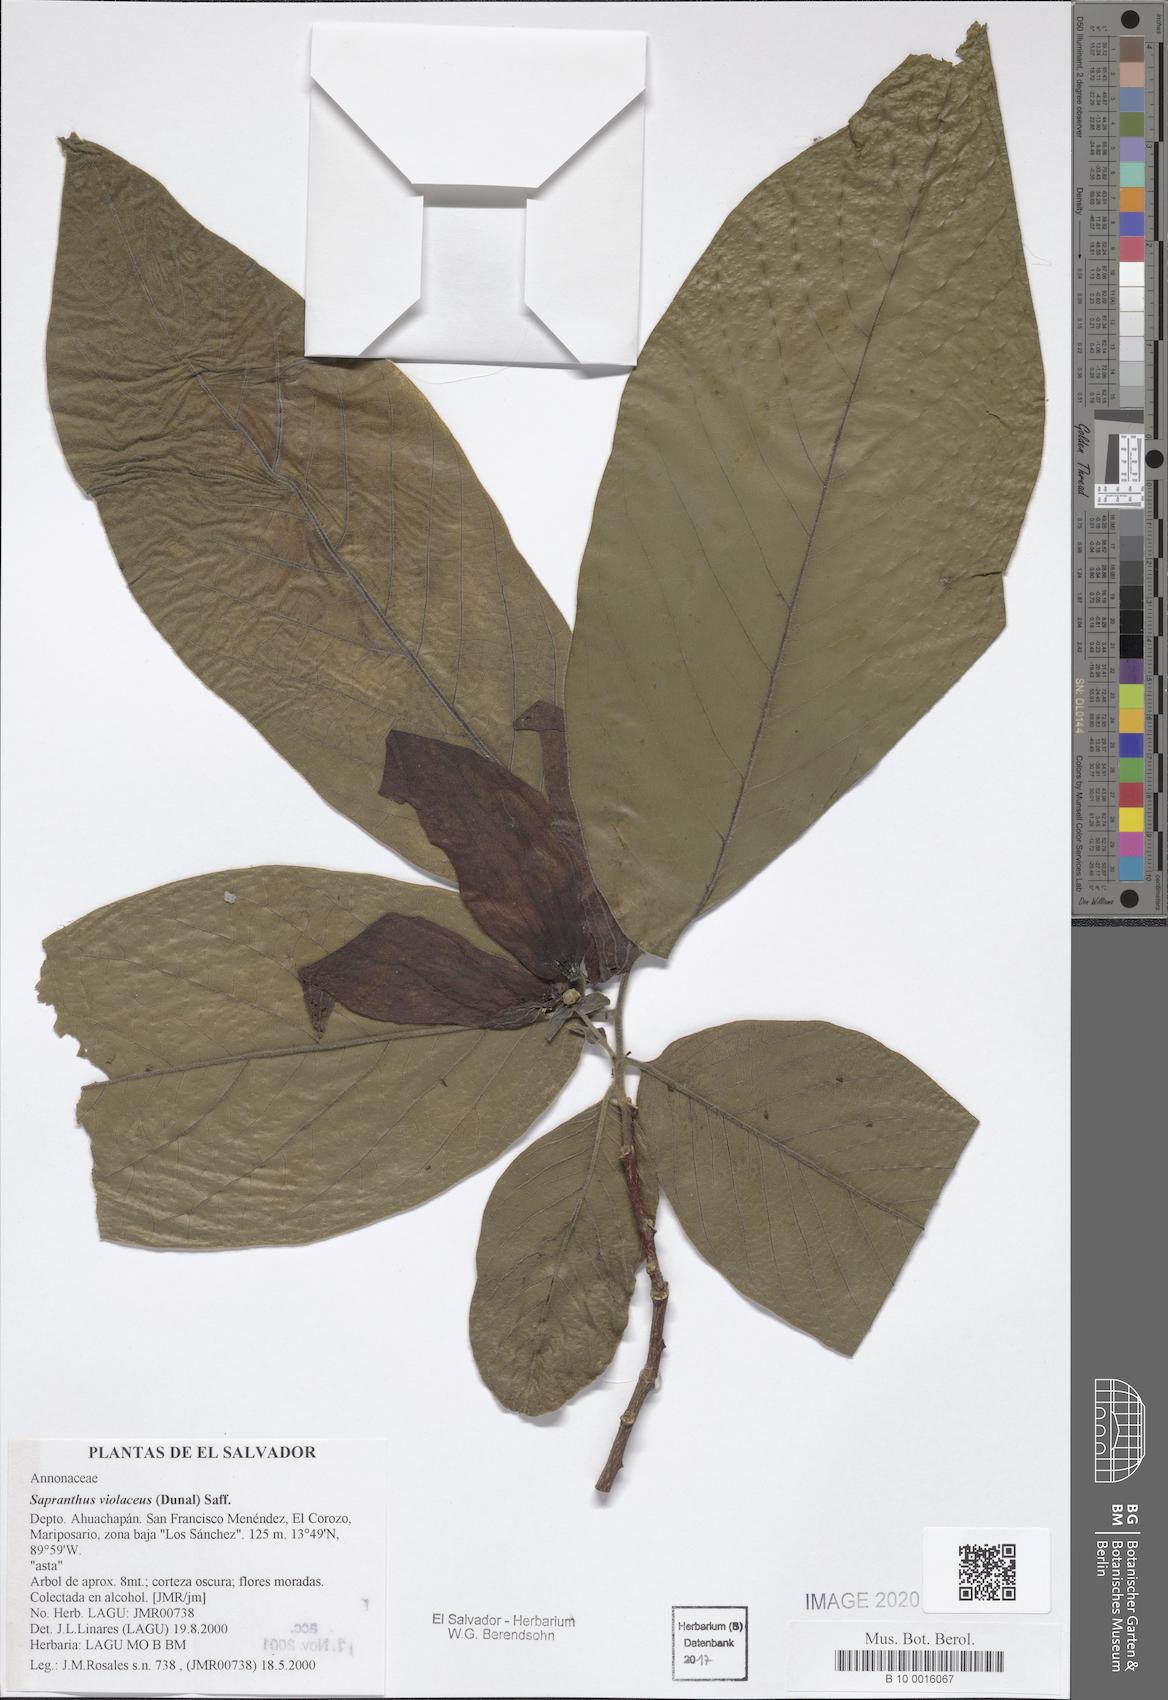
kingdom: Plantae
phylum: Tracheophyta
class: Magnoliopsida
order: Magnoliales
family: Annonaceae
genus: Sapranthus
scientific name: Sapranthus violaceus
